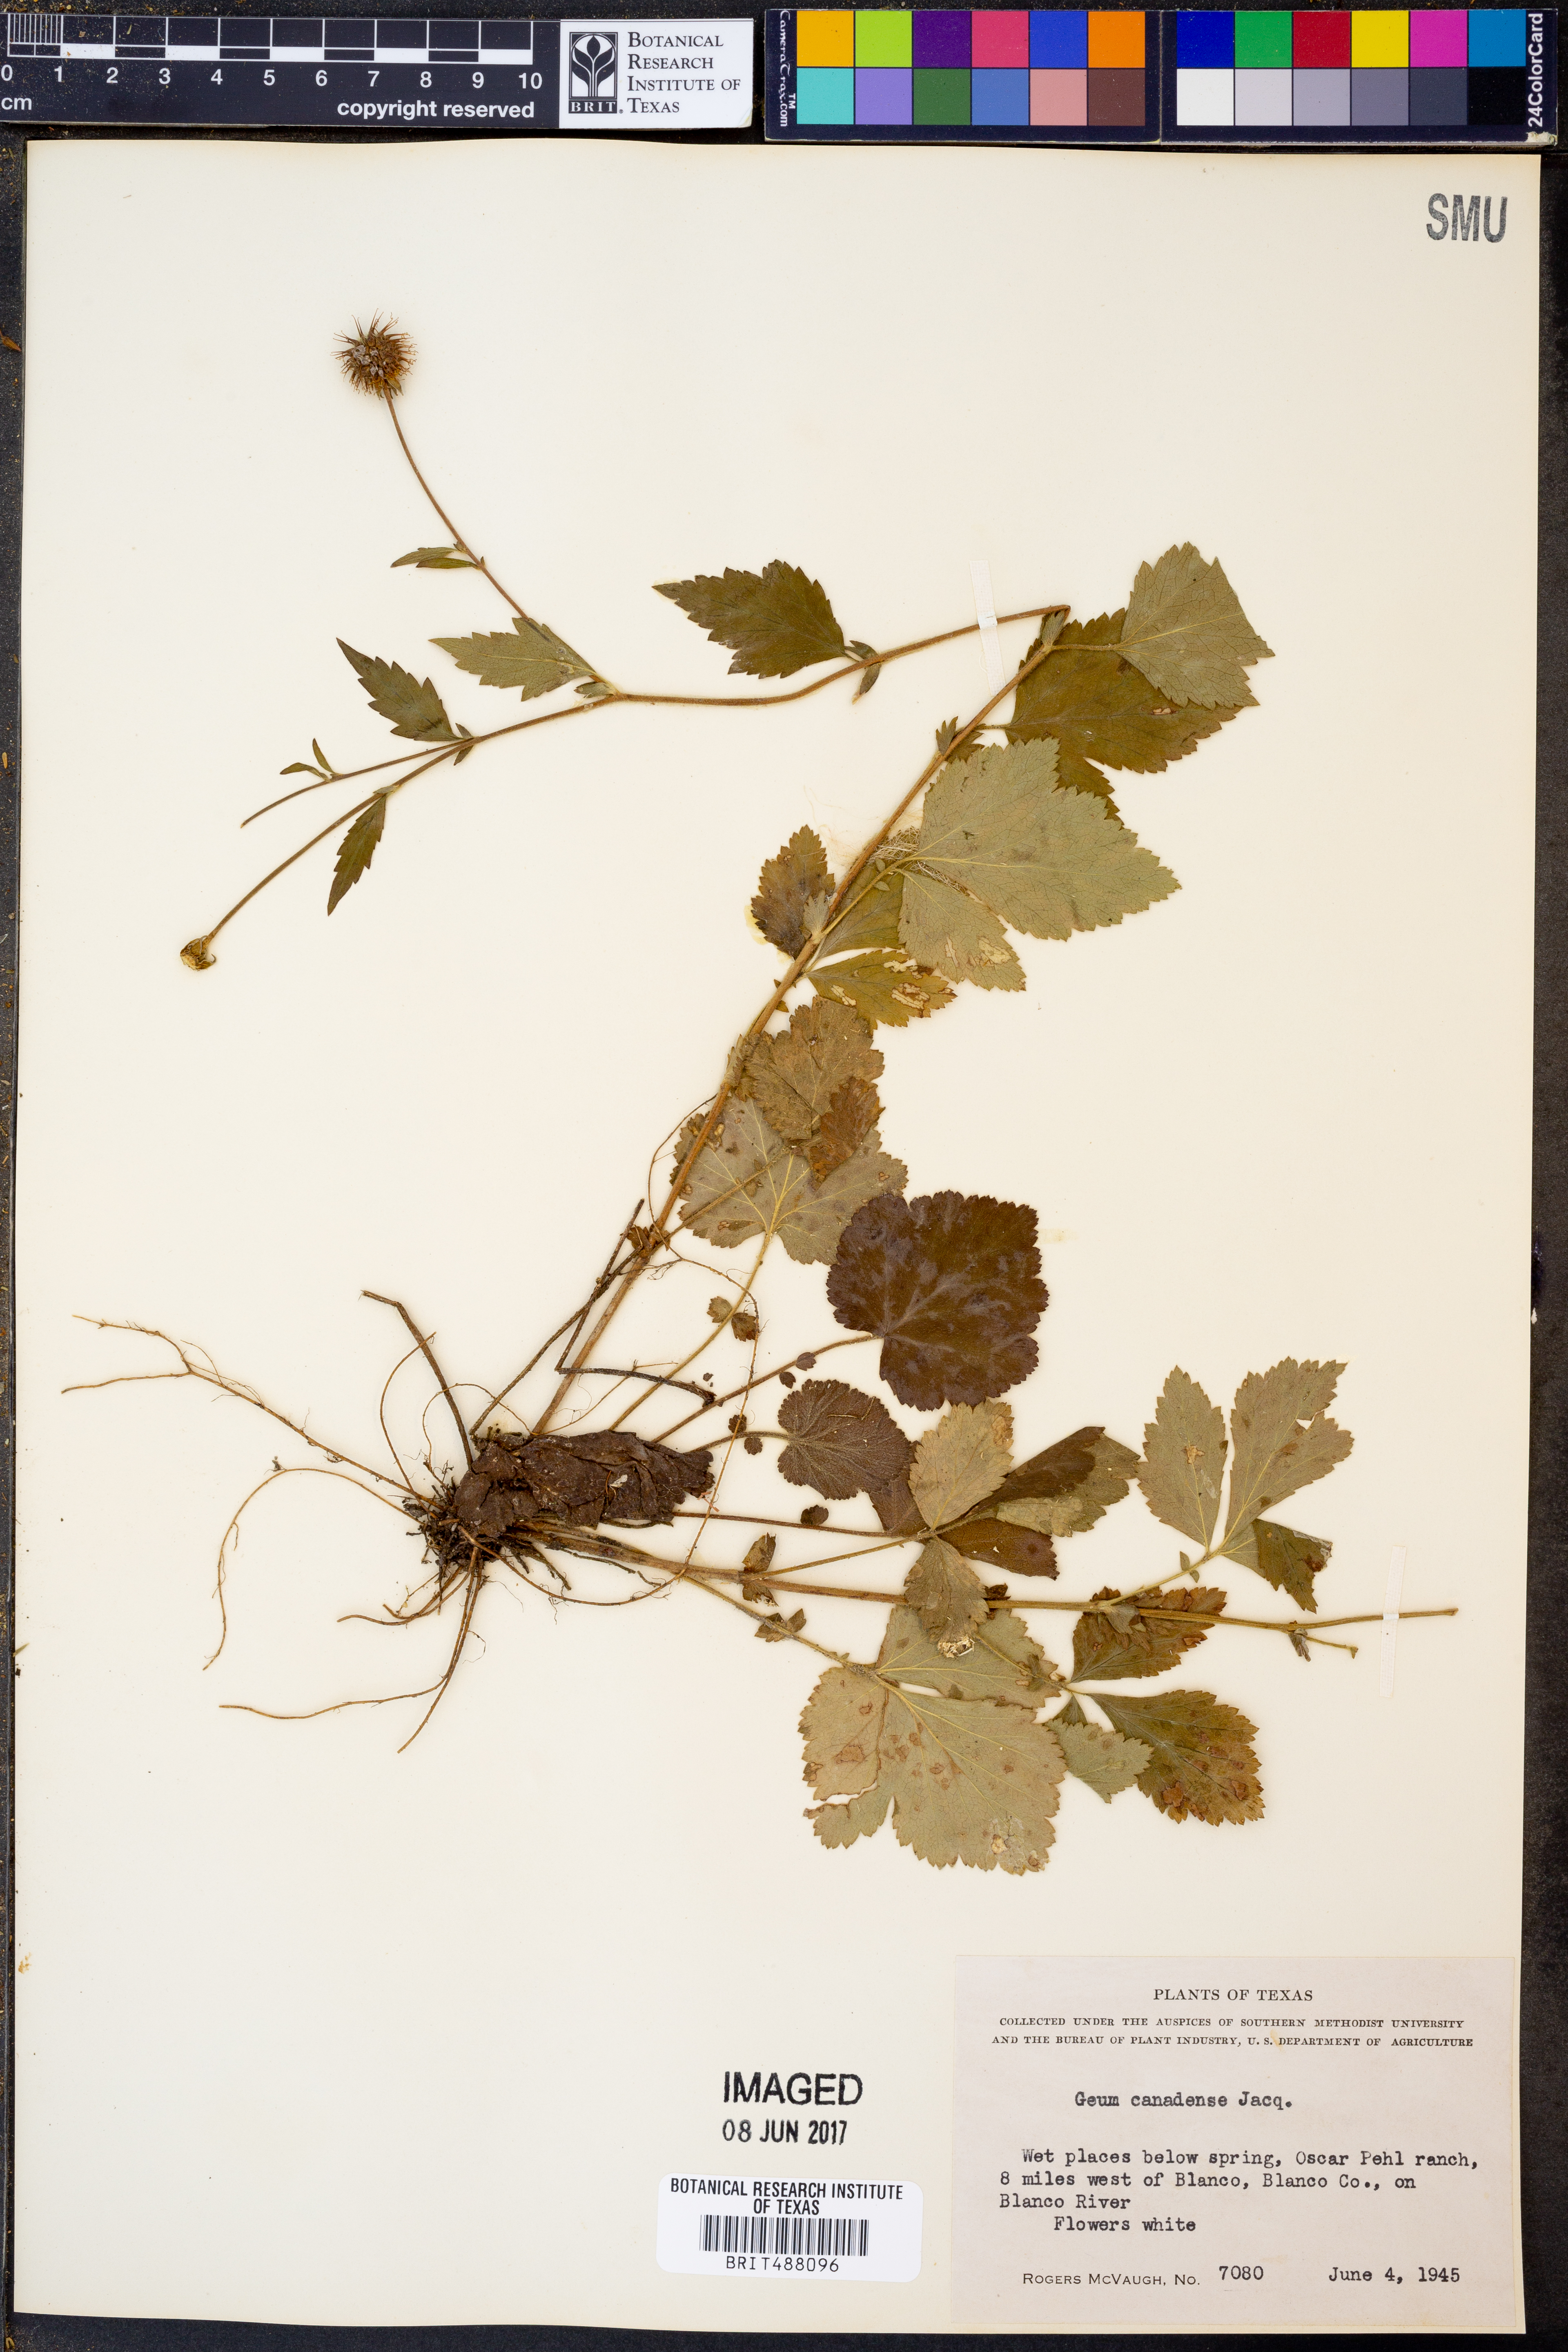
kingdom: Plantae
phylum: Tracheophyta
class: Magnoliopsida
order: Rosales
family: Rosaceae
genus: Geum
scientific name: Geum canadense
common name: White avens
